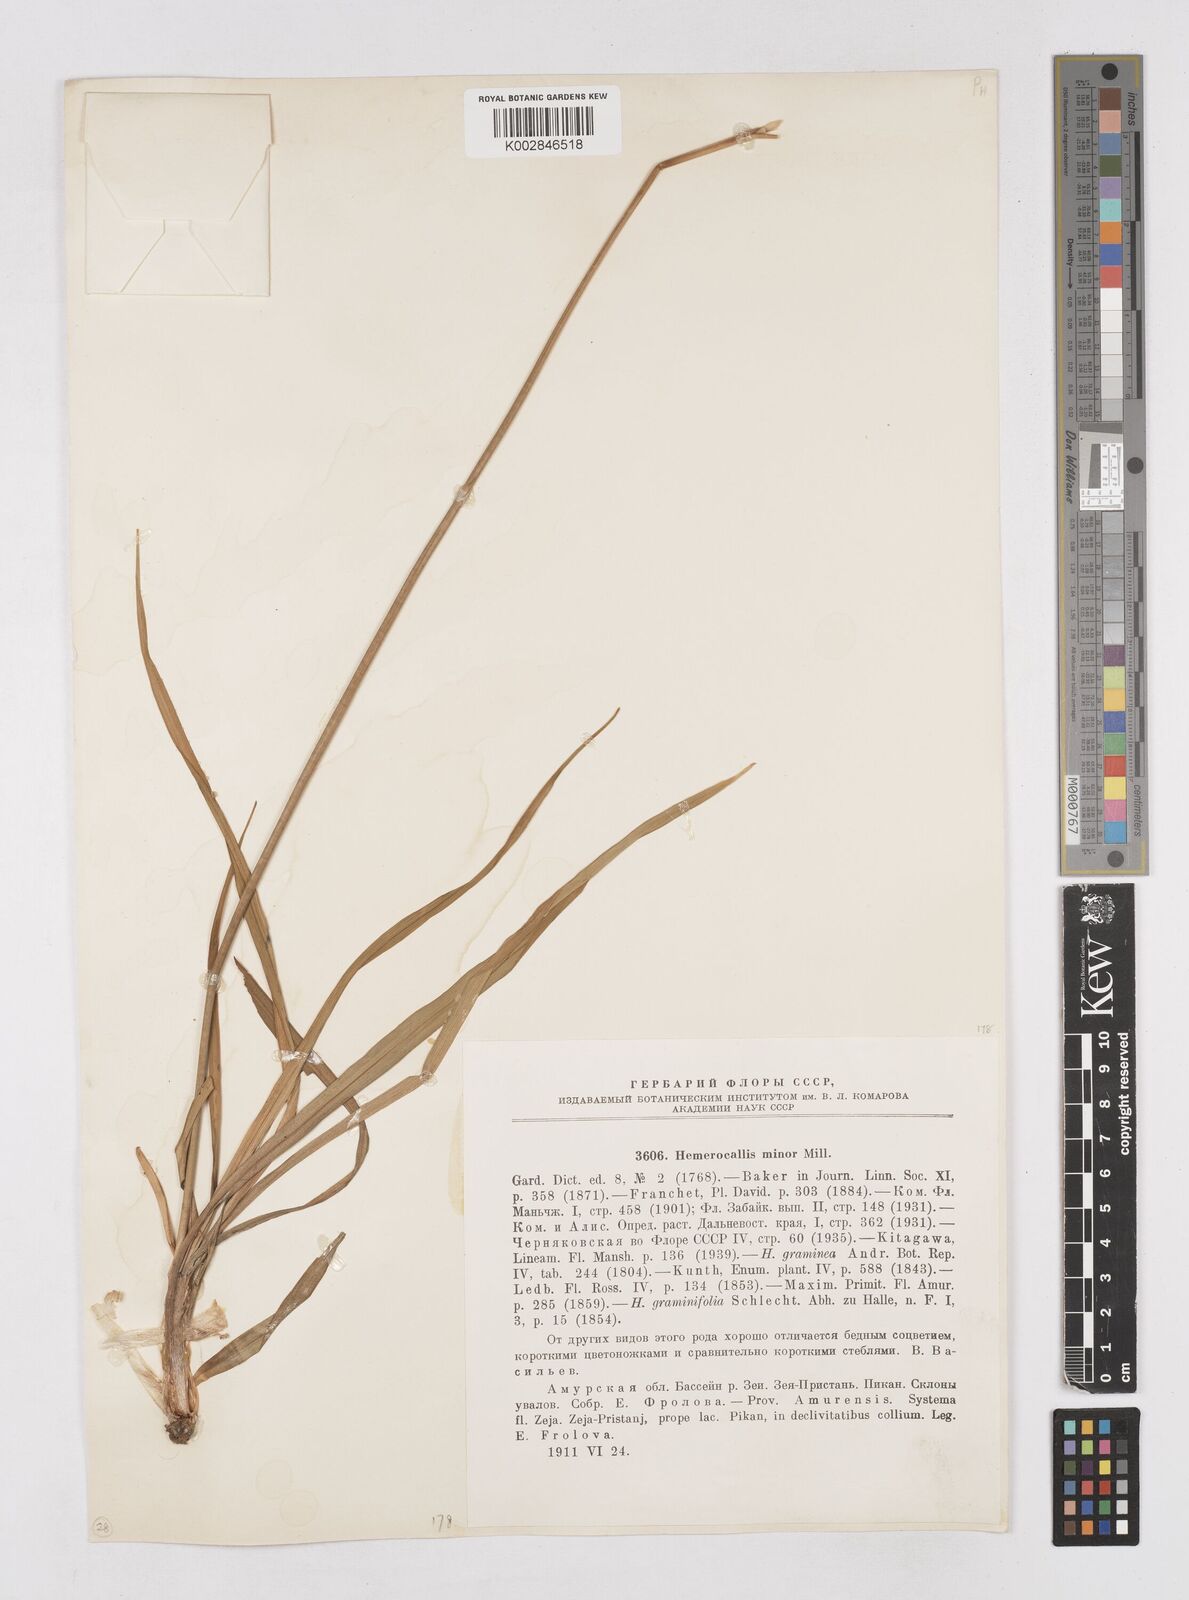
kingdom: Plantae
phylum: Tracheophyta
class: Liliopsida
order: Asparagales
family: Asphodelaceae
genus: Hemerocallis
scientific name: Hemerocallis minor
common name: Small daylily
